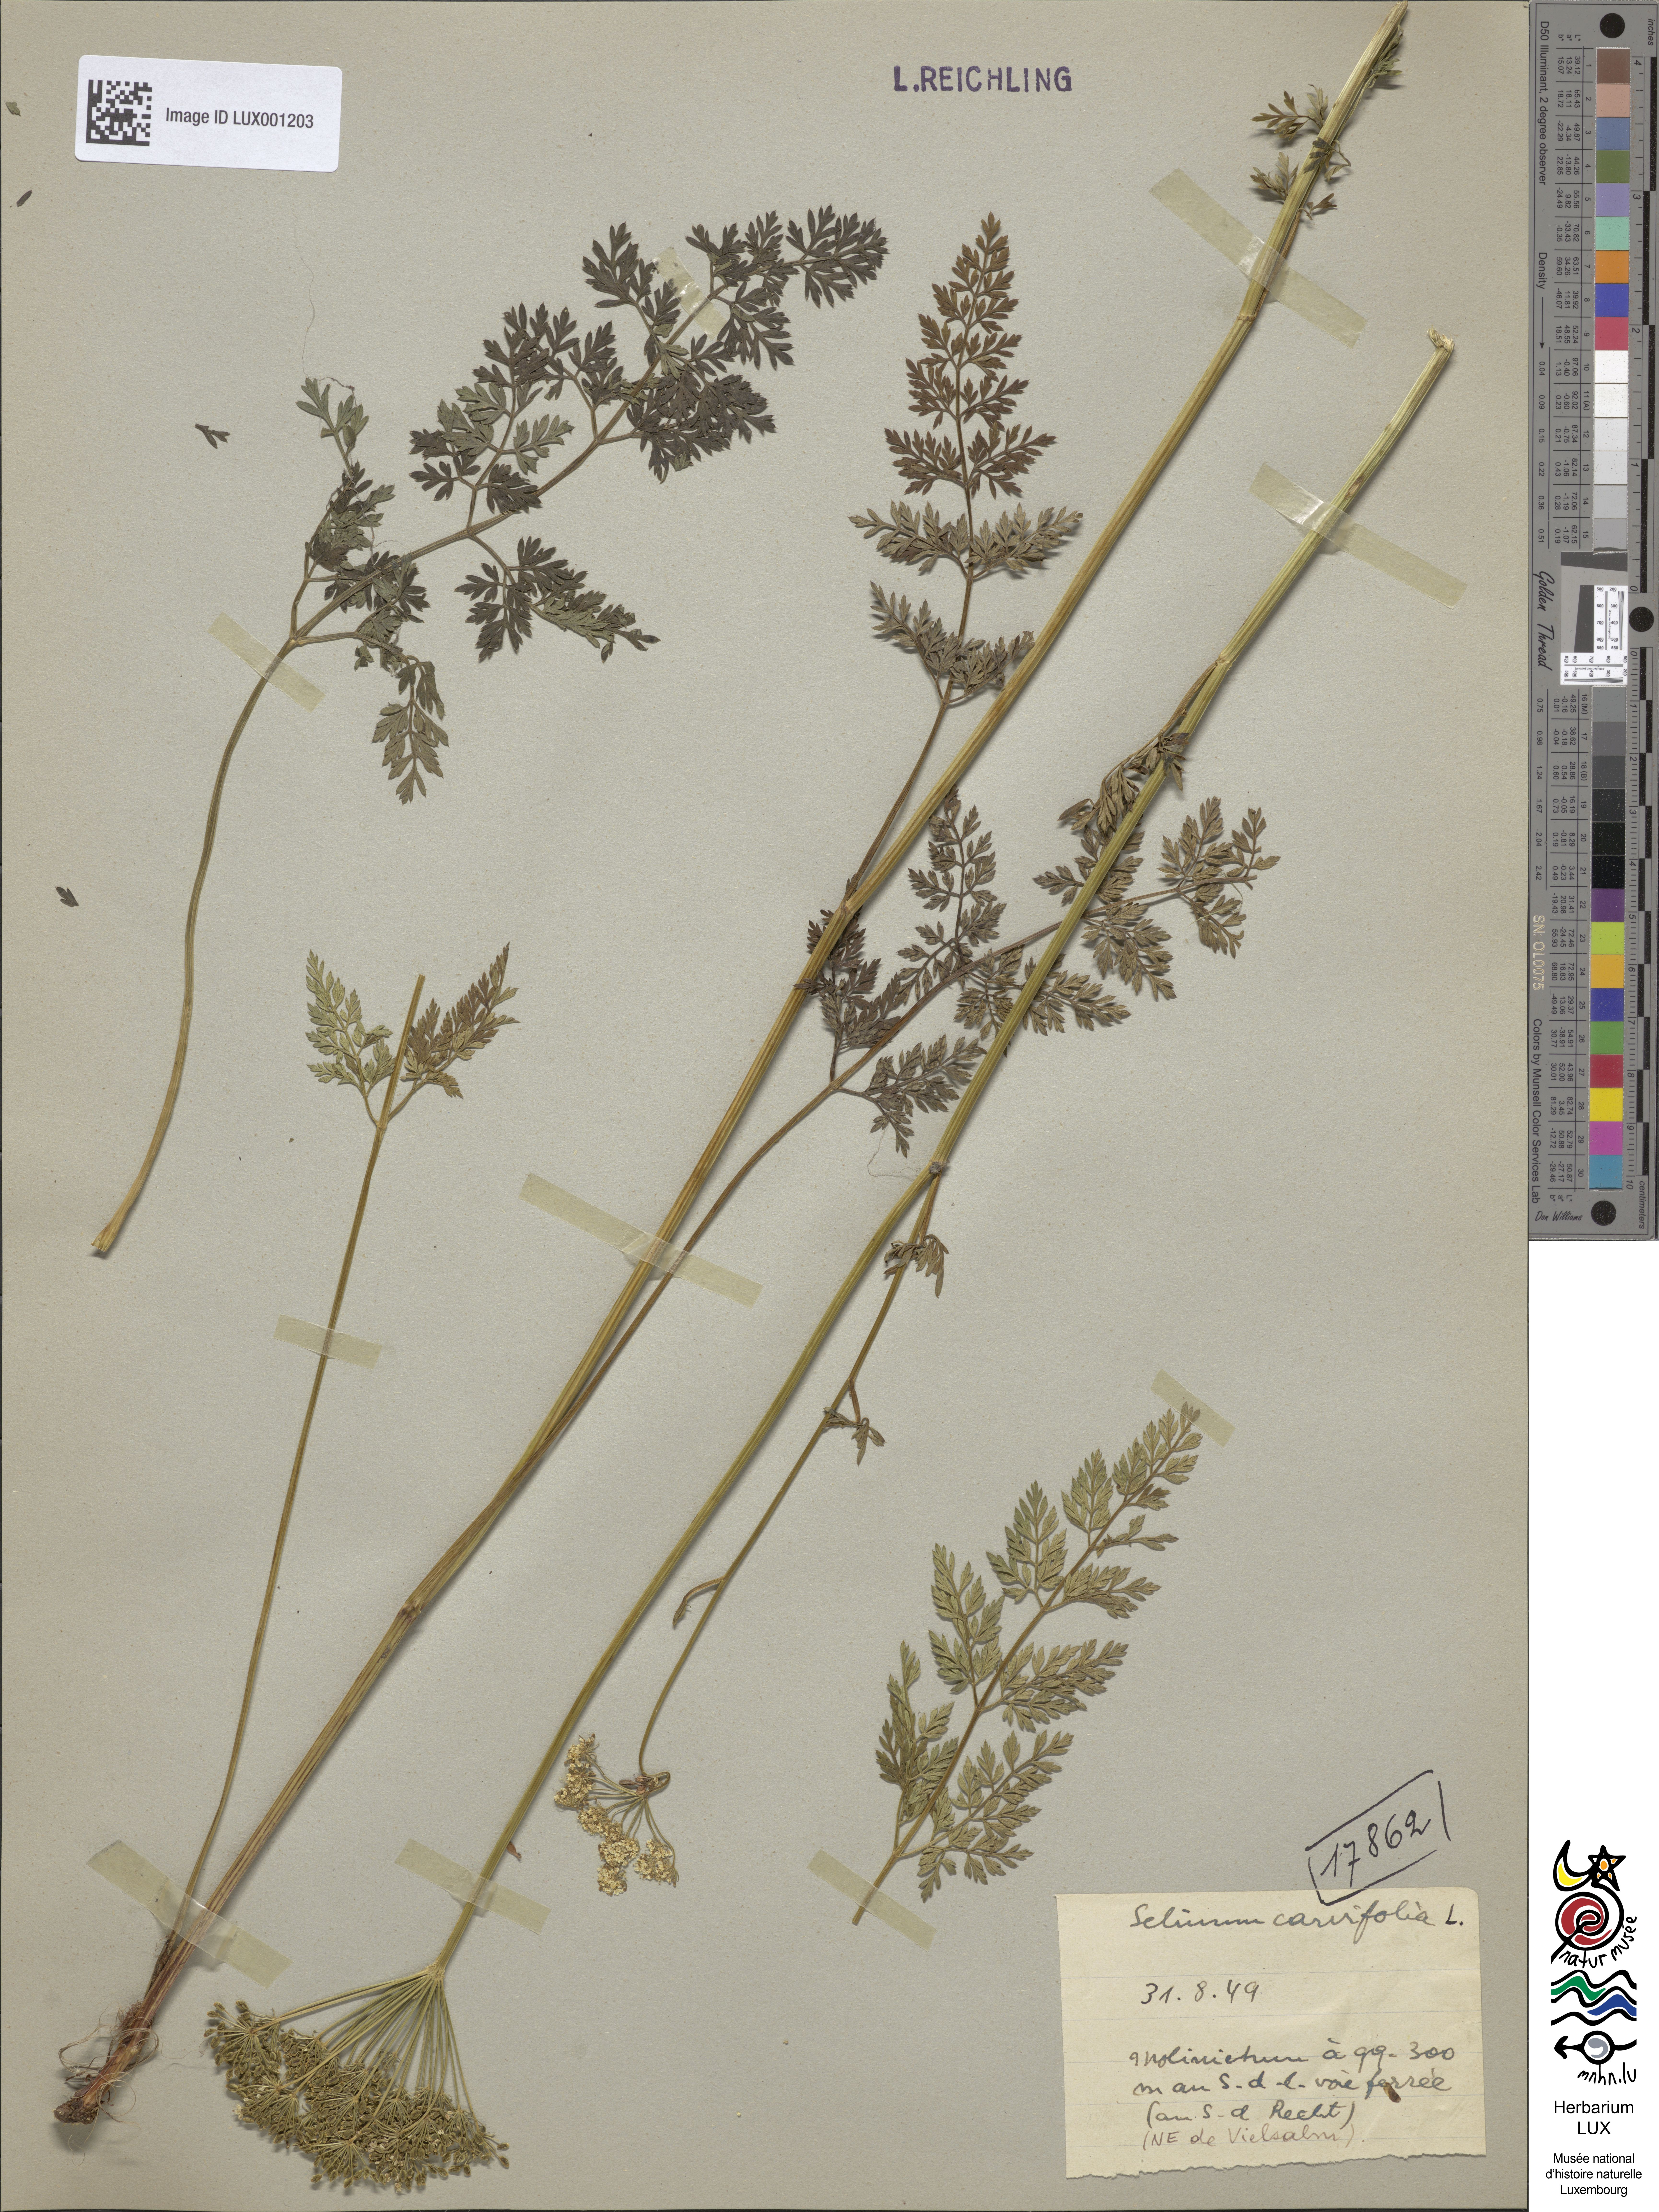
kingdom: Plantae
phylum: Tracheophyta
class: Magnoliopsida
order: Apiales
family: Apiaceae
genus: Selinum
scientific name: Selinum carvifolia
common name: Cambridge milk-parsley
